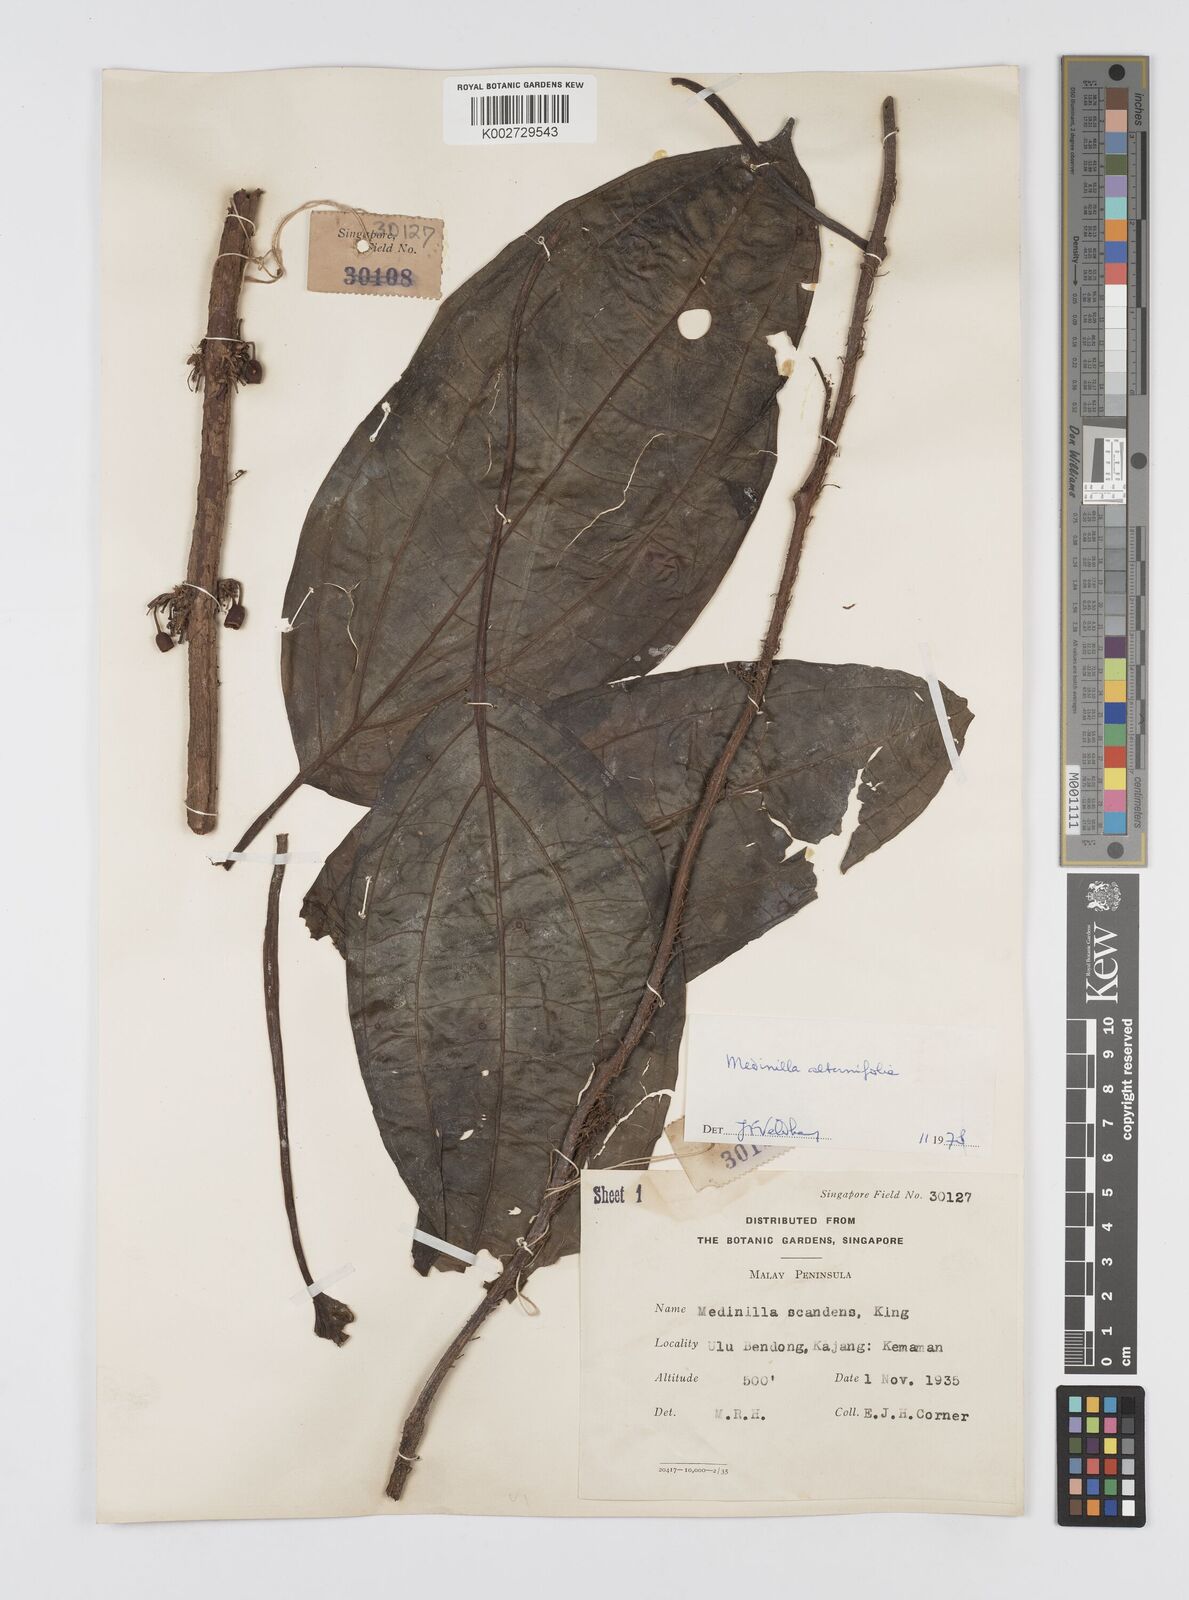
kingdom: Plantae
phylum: Tracheophyta
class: Magnoliopsida
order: Myrtales
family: Melastomataceae
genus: Heteroblemma
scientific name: Heteroblemma alternifolium
